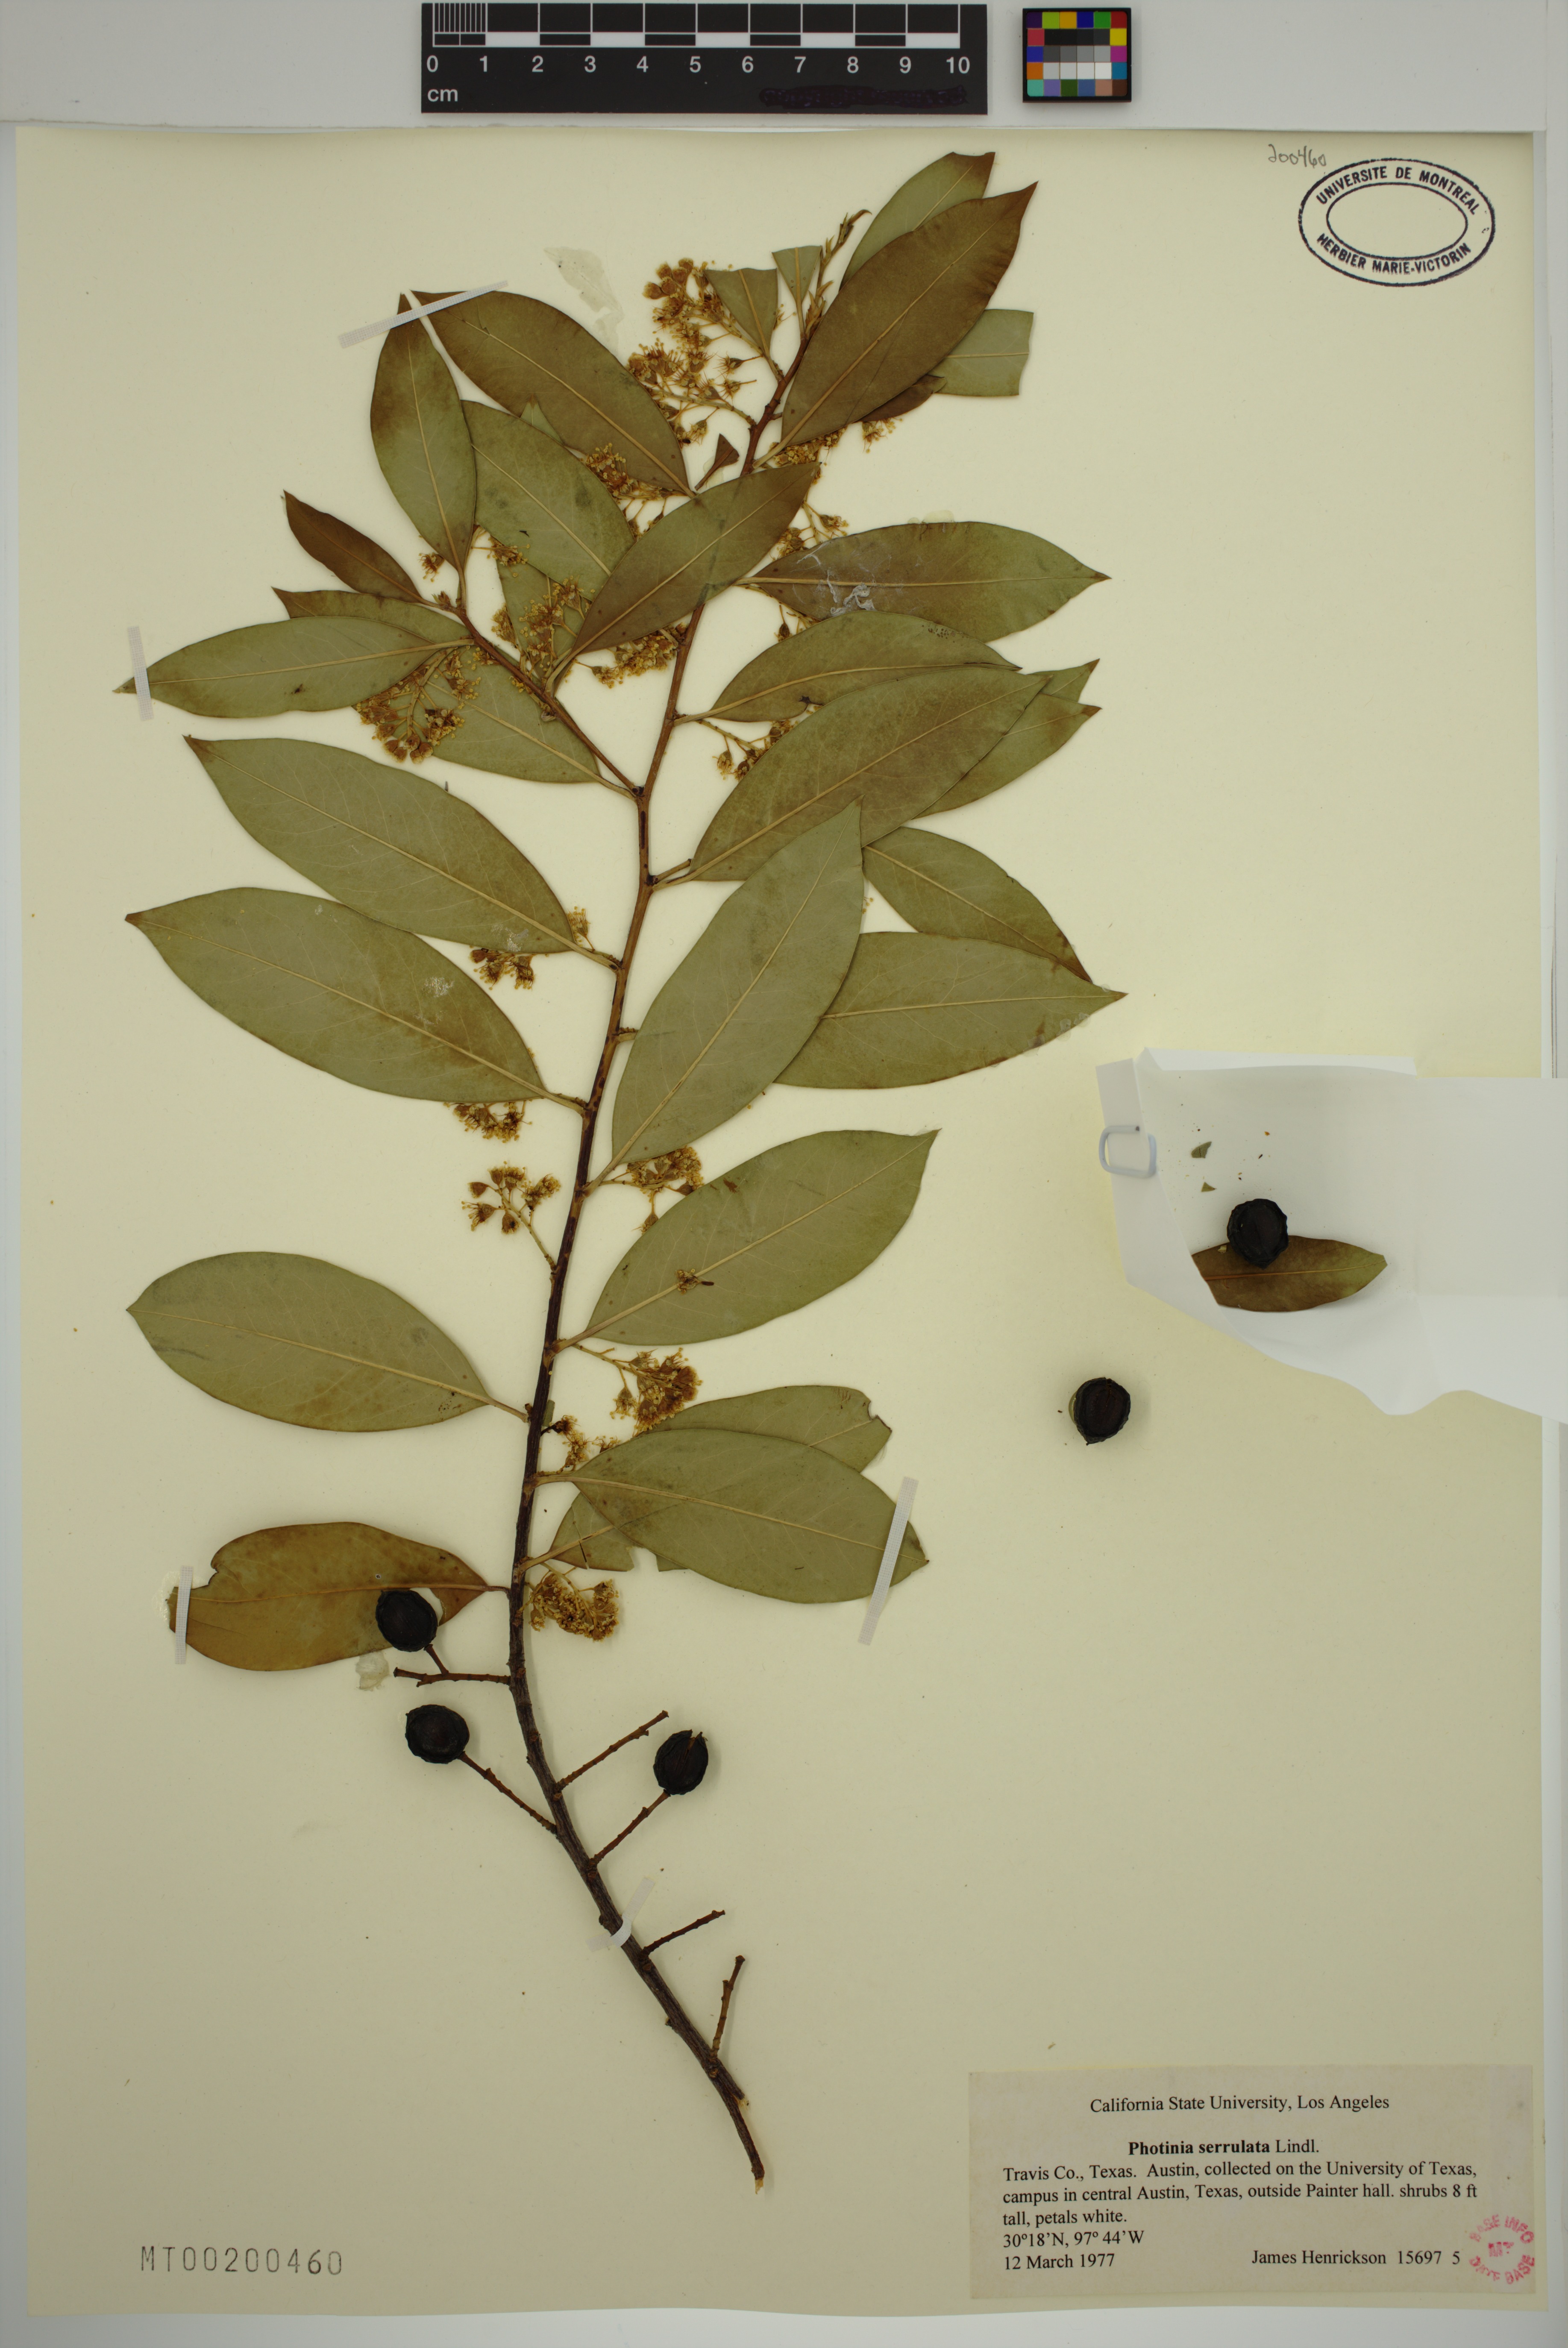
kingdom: Plantae
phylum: Tracheophyta
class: Magnoliopsida
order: Rosales
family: Rosaceae
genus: Photinia
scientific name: Photinia glabra
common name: Japanese photinia
